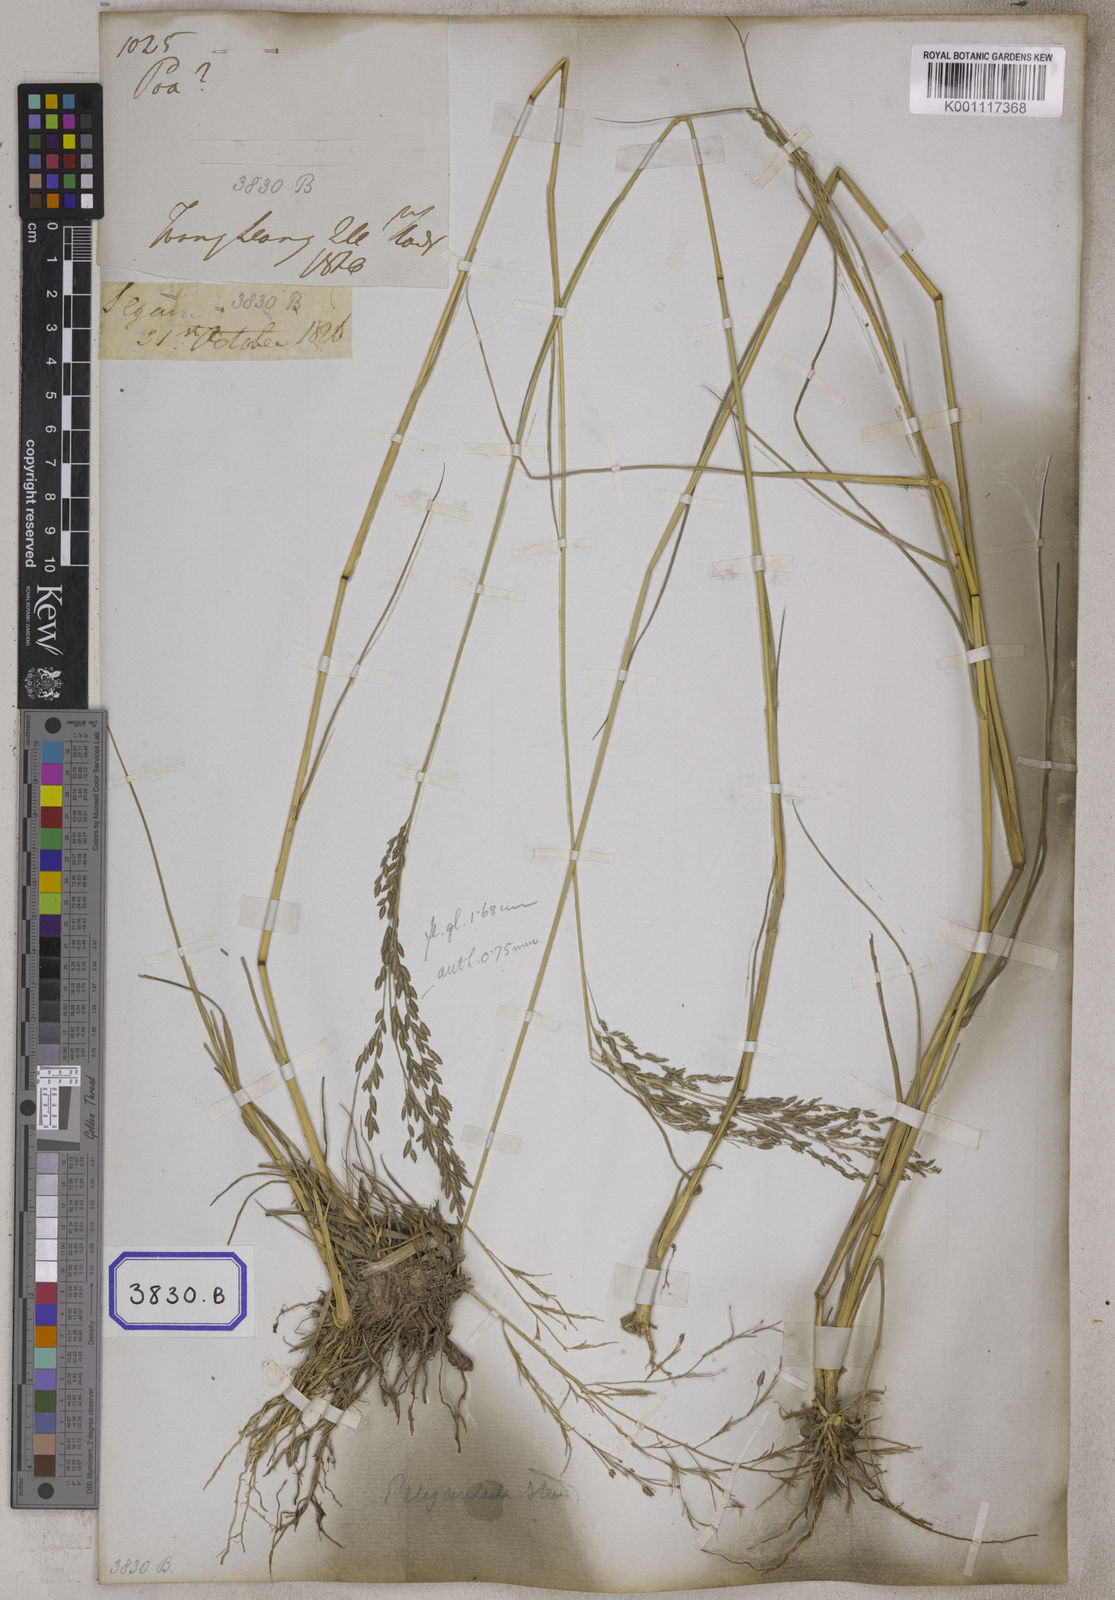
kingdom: Plantae
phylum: Tracheophyta
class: Liliopsida
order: Poales
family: Poaceae
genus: Eragrostis
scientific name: Eragrostis
